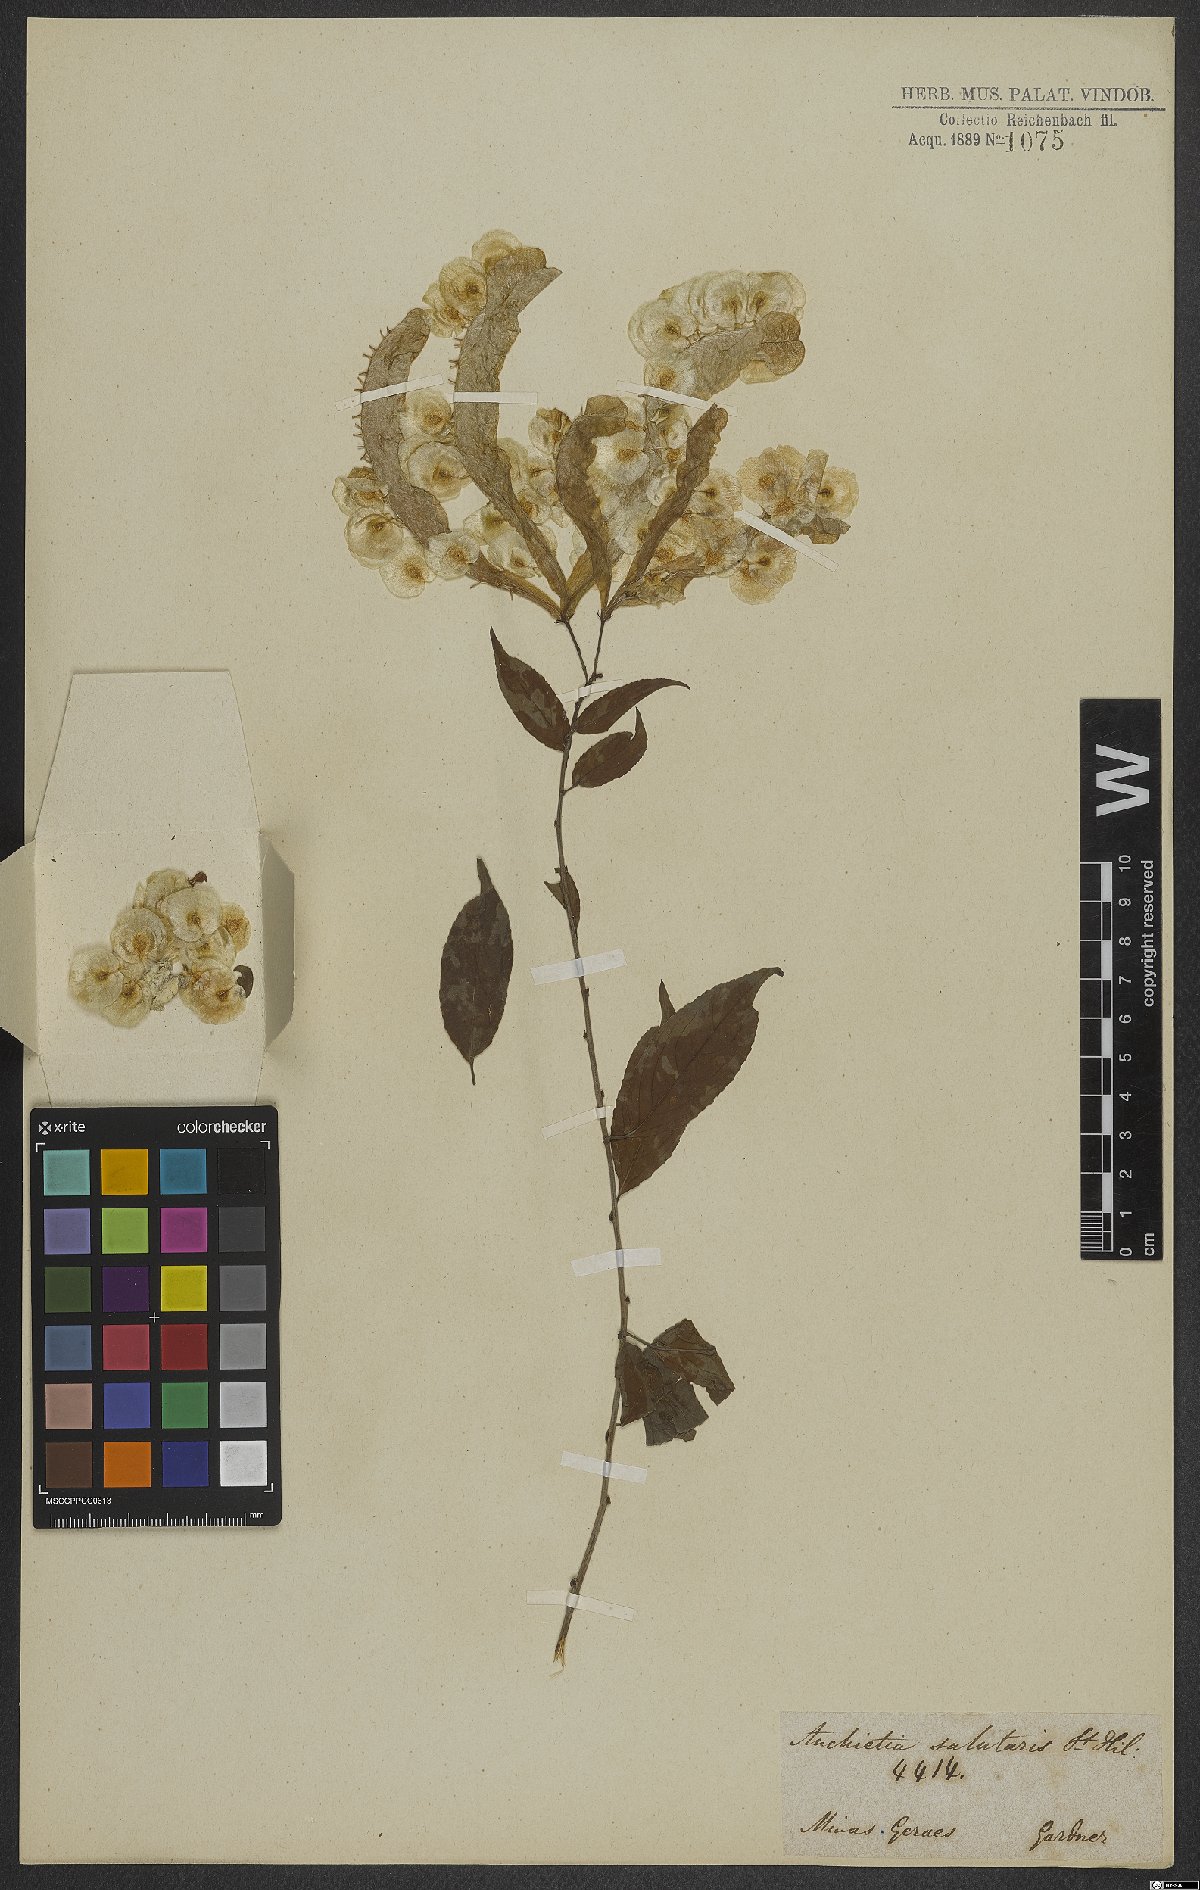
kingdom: Plantae
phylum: Tracheophyta
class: Magnoliopsida
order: Malpighiales
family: Violaceae
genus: Anchietea
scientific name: Anchietea pyrifolia
